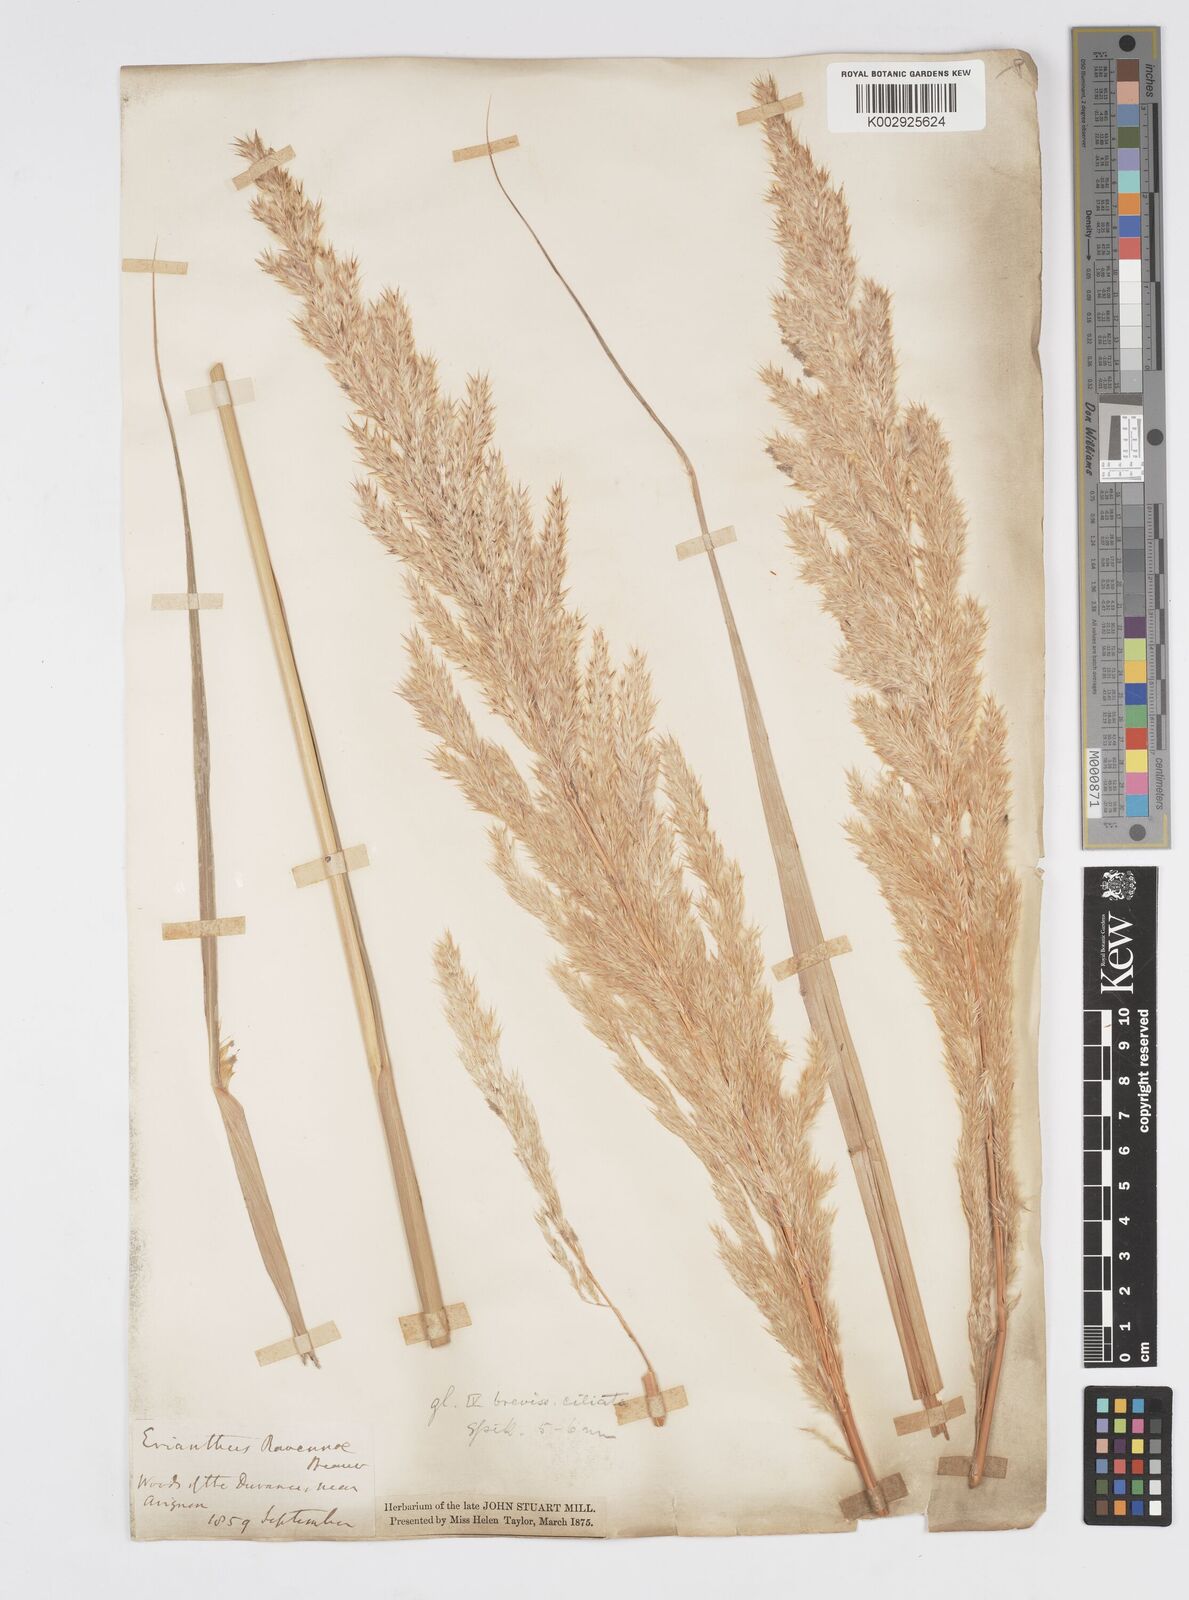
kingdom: Plantae
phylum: Tracheophyta
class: Liliopsida
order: Poales
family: Poaceae
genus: Tripidium
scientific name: Tripidium ravennae
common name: Ravenna grass
